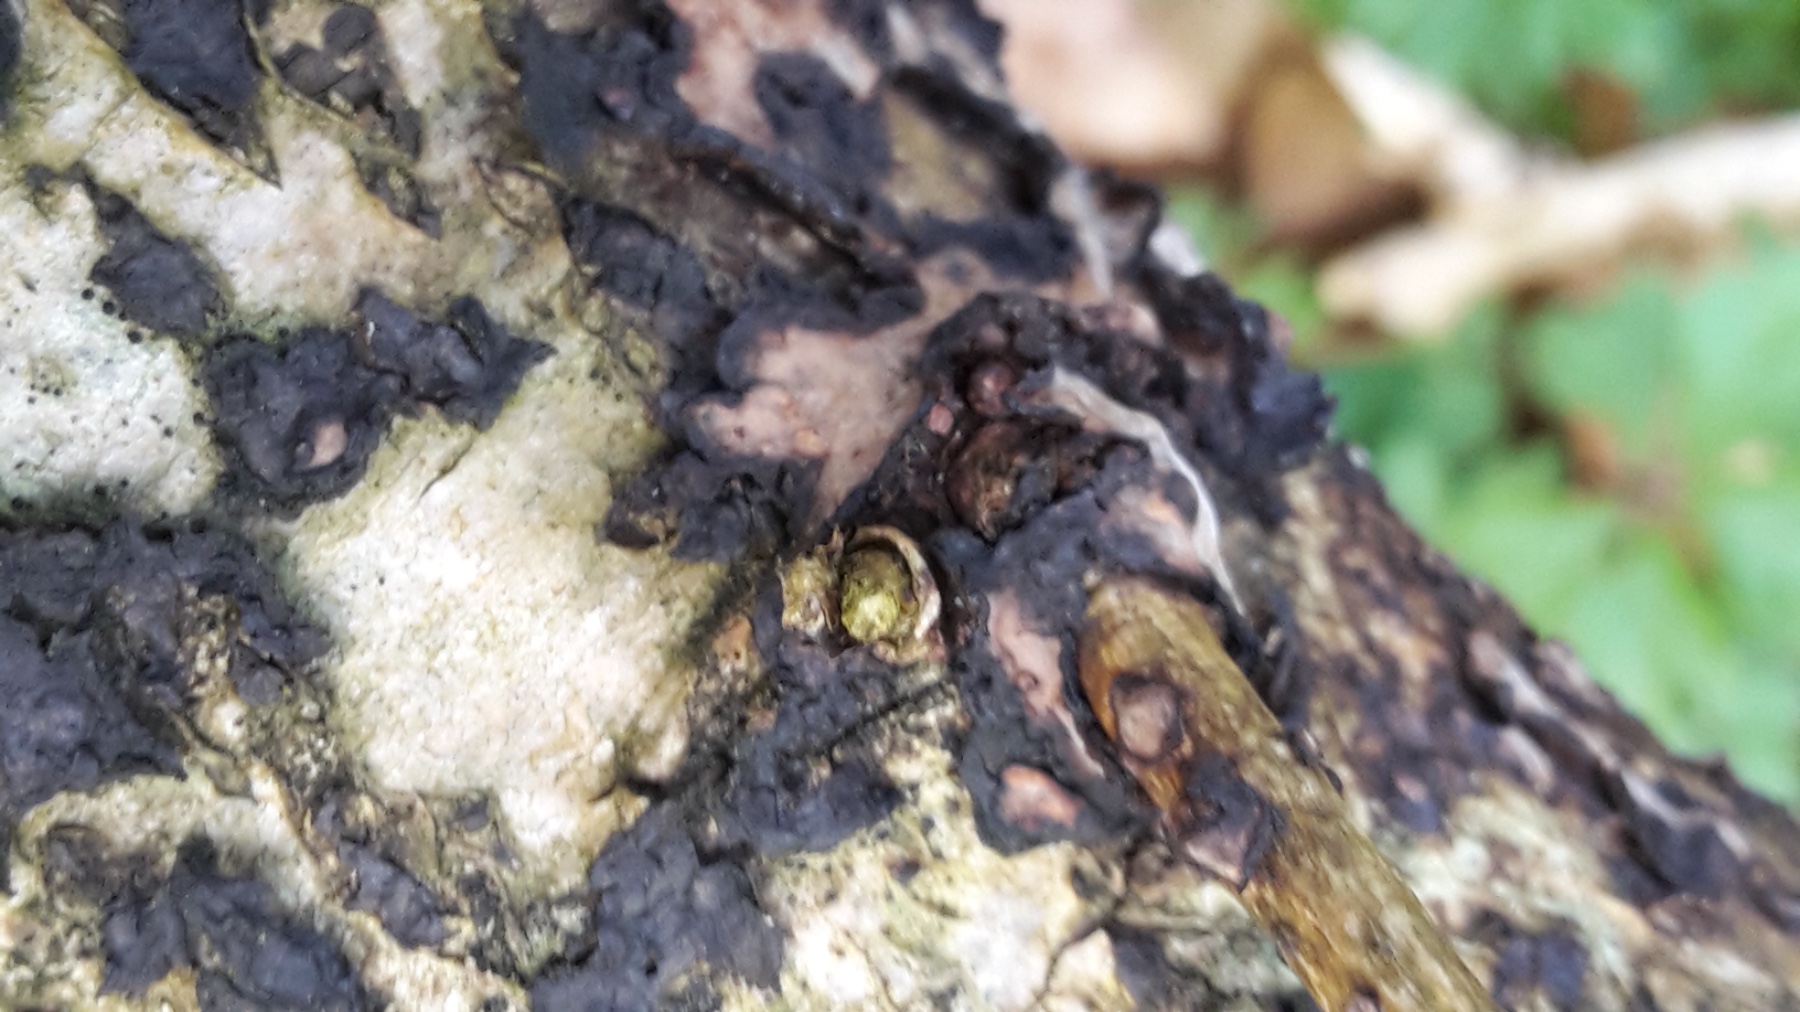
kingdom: Fungi
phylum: Basidiomycota
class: Agaricomycetes
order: Russulales
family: Peniophoraceae
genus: Peniophora
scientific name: Peniophora quercina
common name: ege-voksskind
